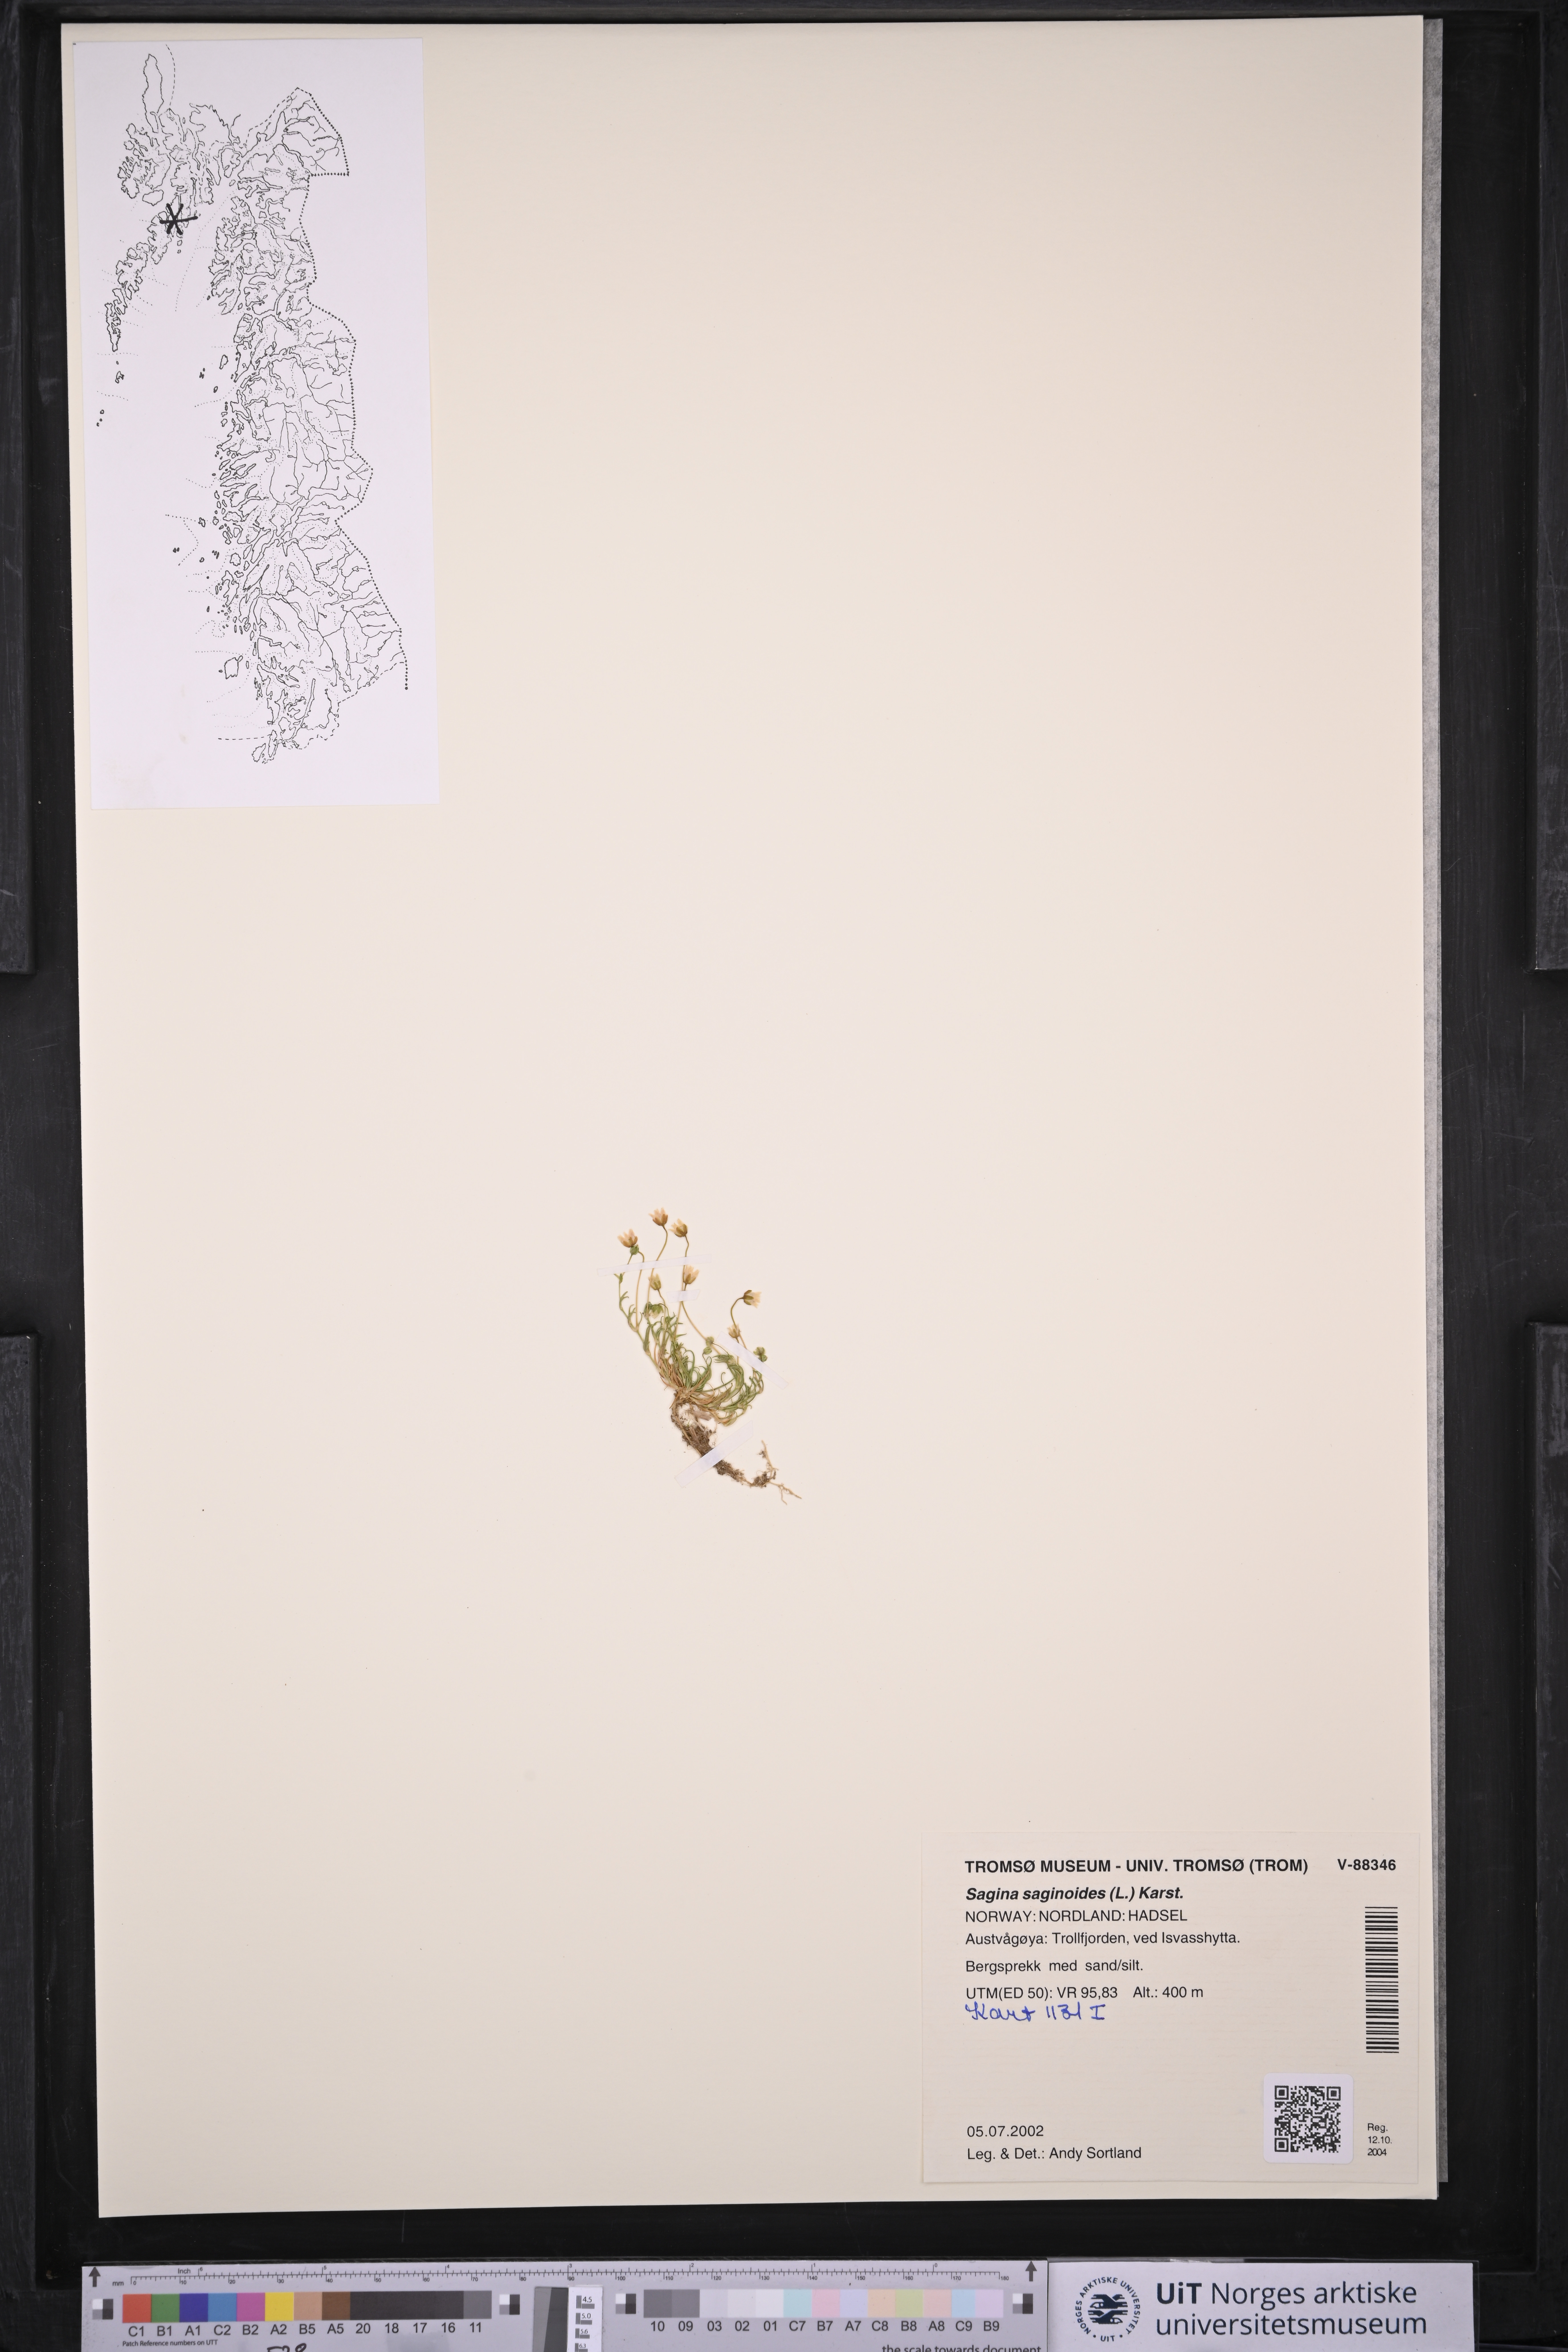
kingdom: Plantae
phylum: Tracheophyta
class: Magnoliopsida
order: Caryophyllales
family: Caryophyllaceae
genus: Sagina
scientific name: Sagina saginoides
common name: Alpine pearlwort
